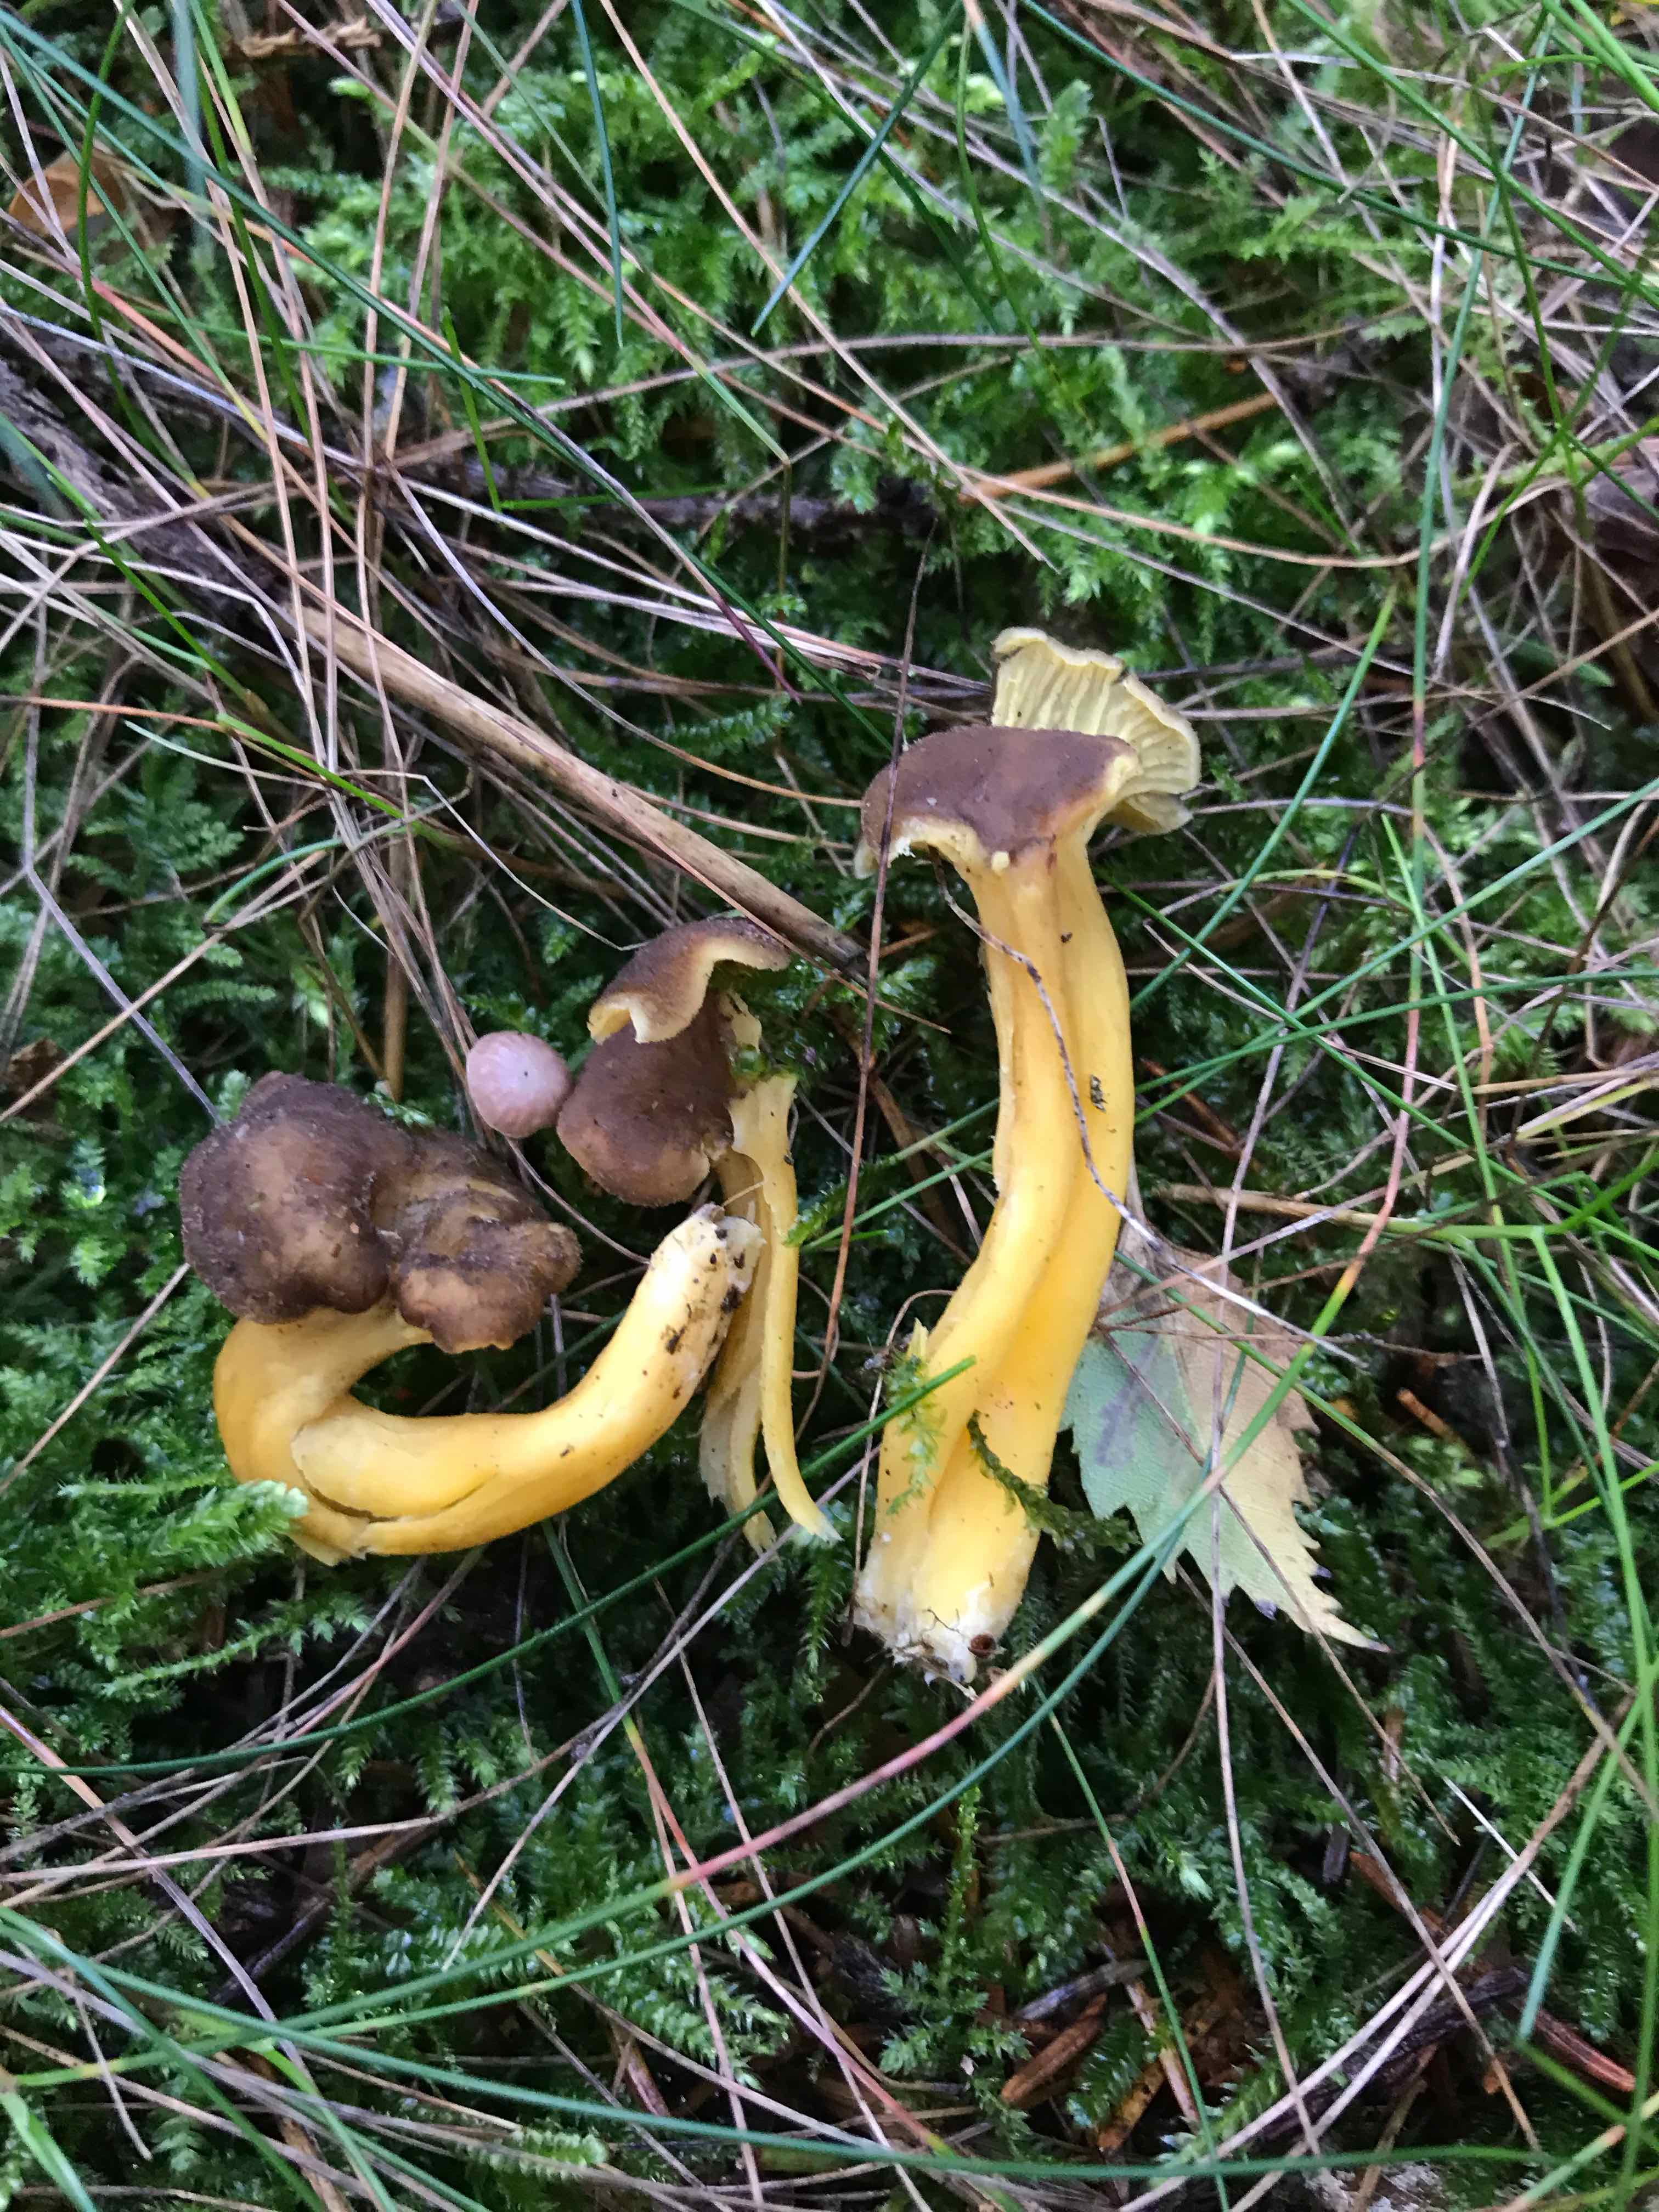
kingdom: Fungi
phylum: Basidiomycota
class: Agaricomycetes
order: Cantharellales
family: Hydnaceae
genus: Craterellus
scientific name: Craterellus tubaeformis
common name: tragt-kantarel
